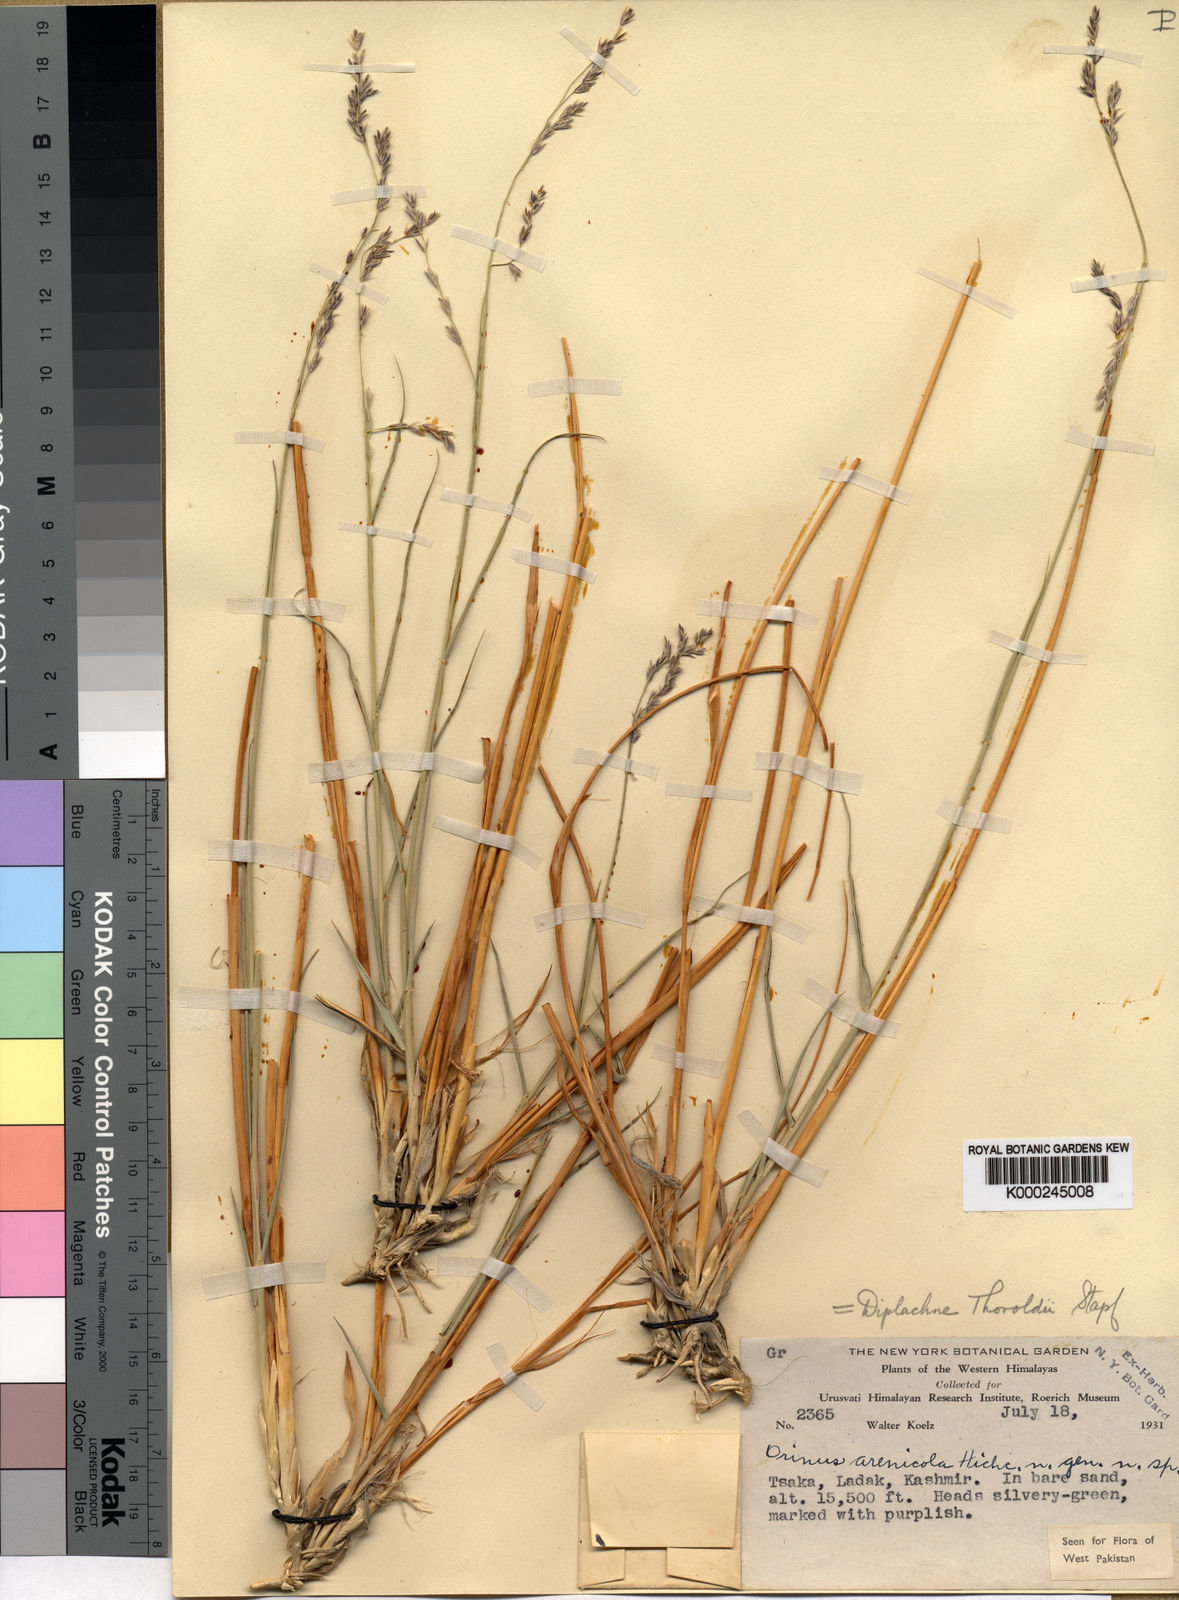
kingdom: Plantae
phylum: Tracheophyta
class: Liliopsida
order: Poales
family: Poaceae
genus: Orinus
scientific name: Orinus thoroldii
